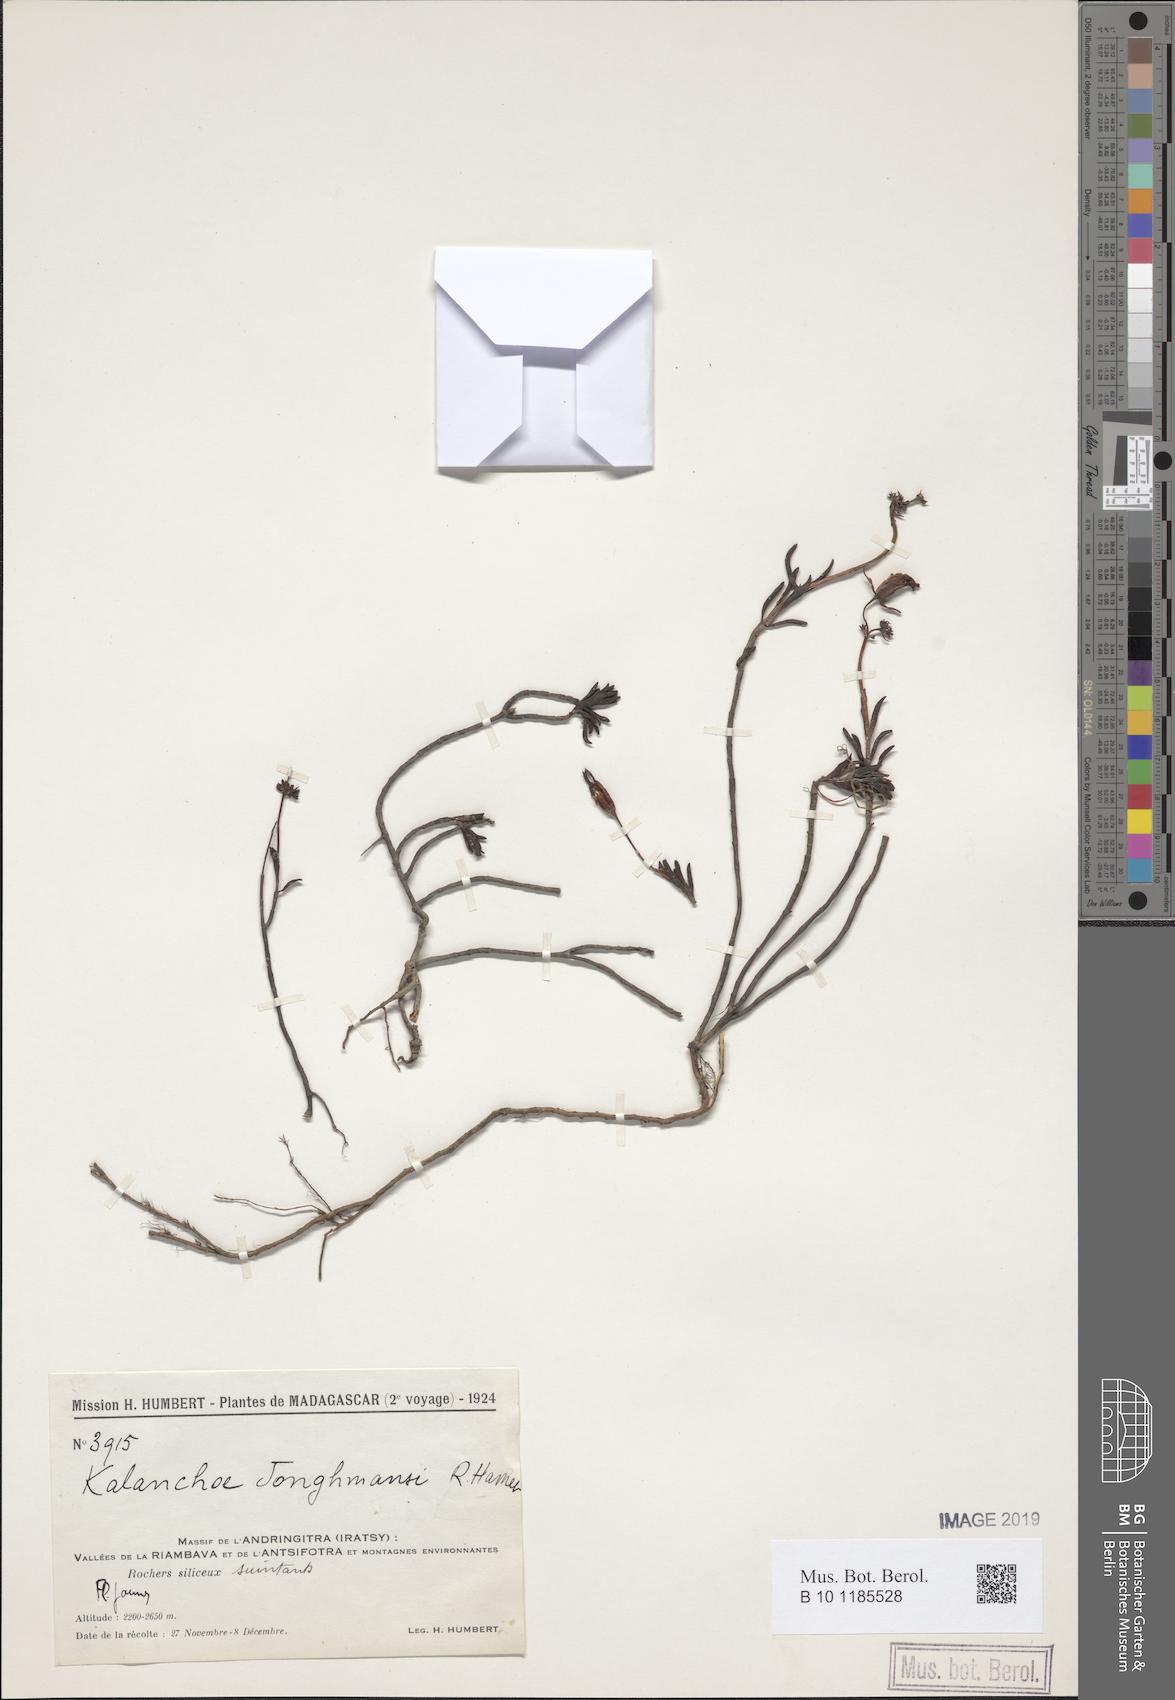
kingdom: Plantae
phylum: Tracheophyta
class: Magnoliopsida
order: Saxifragales
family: Crassulaceae
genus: Kalanchoe
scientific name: Kalanchoe jongmansii
